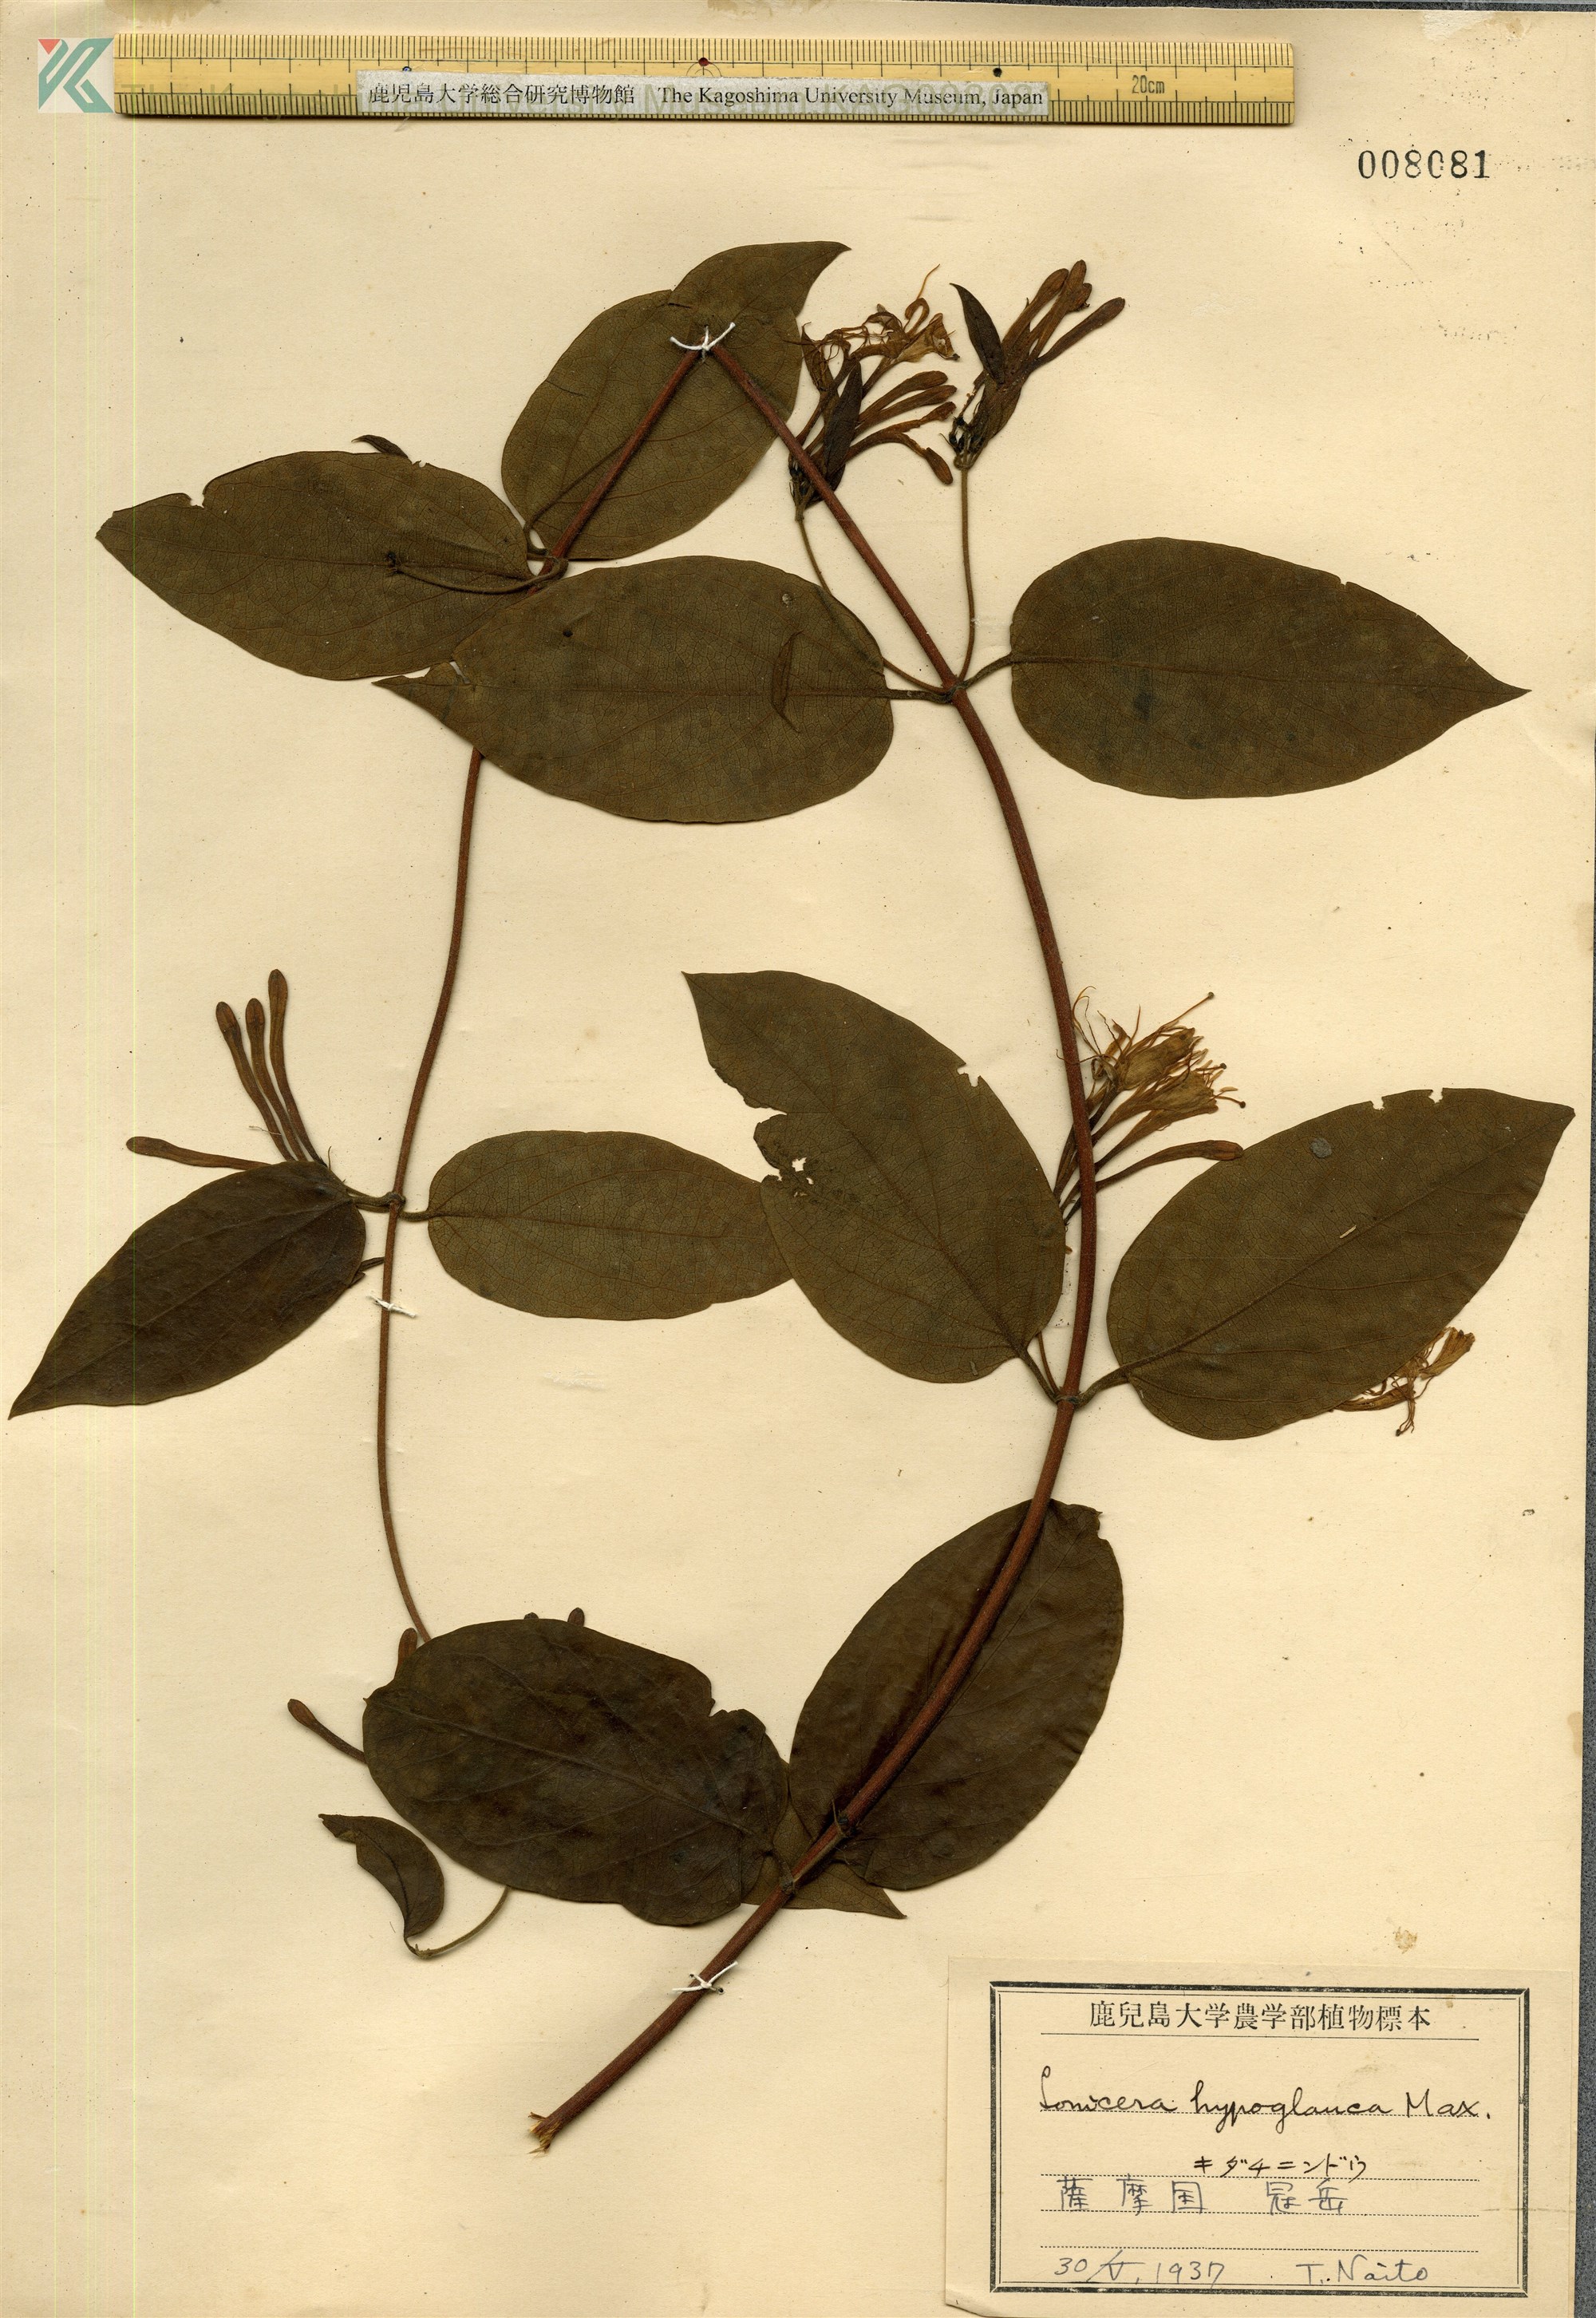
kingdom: Plantae
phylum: Tracheophyta
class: Magnoliopsida
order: Dipsacales
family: Caprifoliaceae
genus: Lonicera
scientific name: Lonicera hypoglauca
